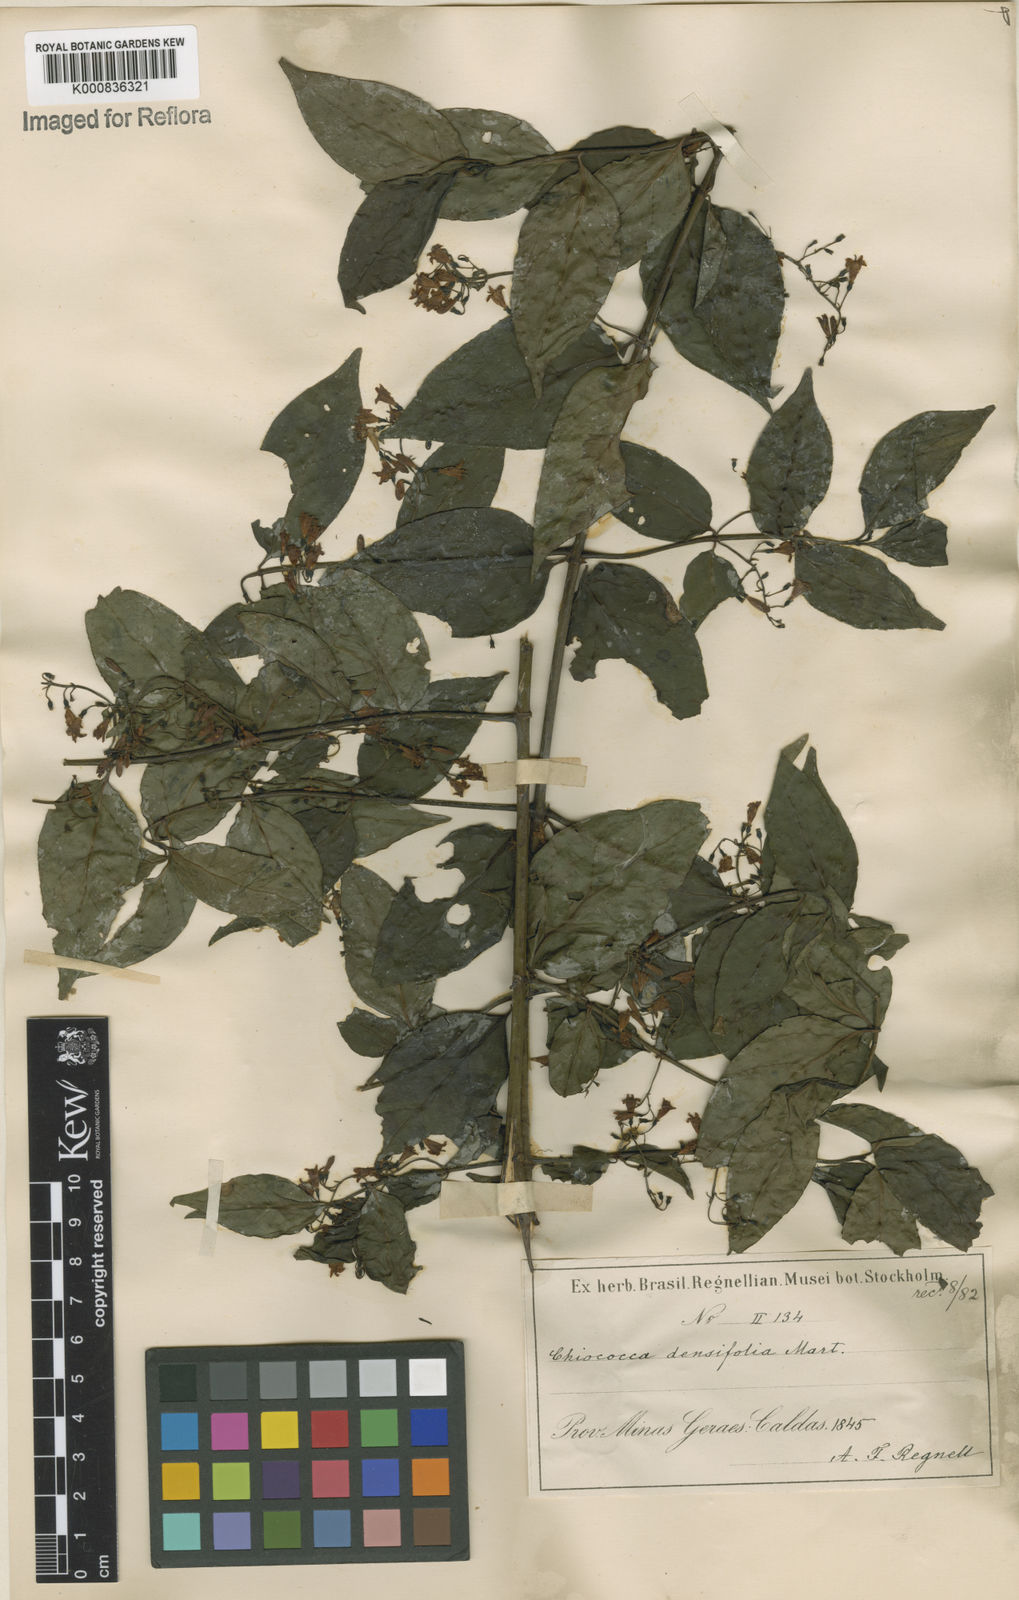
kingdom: Plantae
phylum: Tracheophyta
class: Magnoliopsida
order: Gentianales
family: Rubiaceae
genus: Chiococca
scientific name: Chiococca alba
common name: Snowberry
